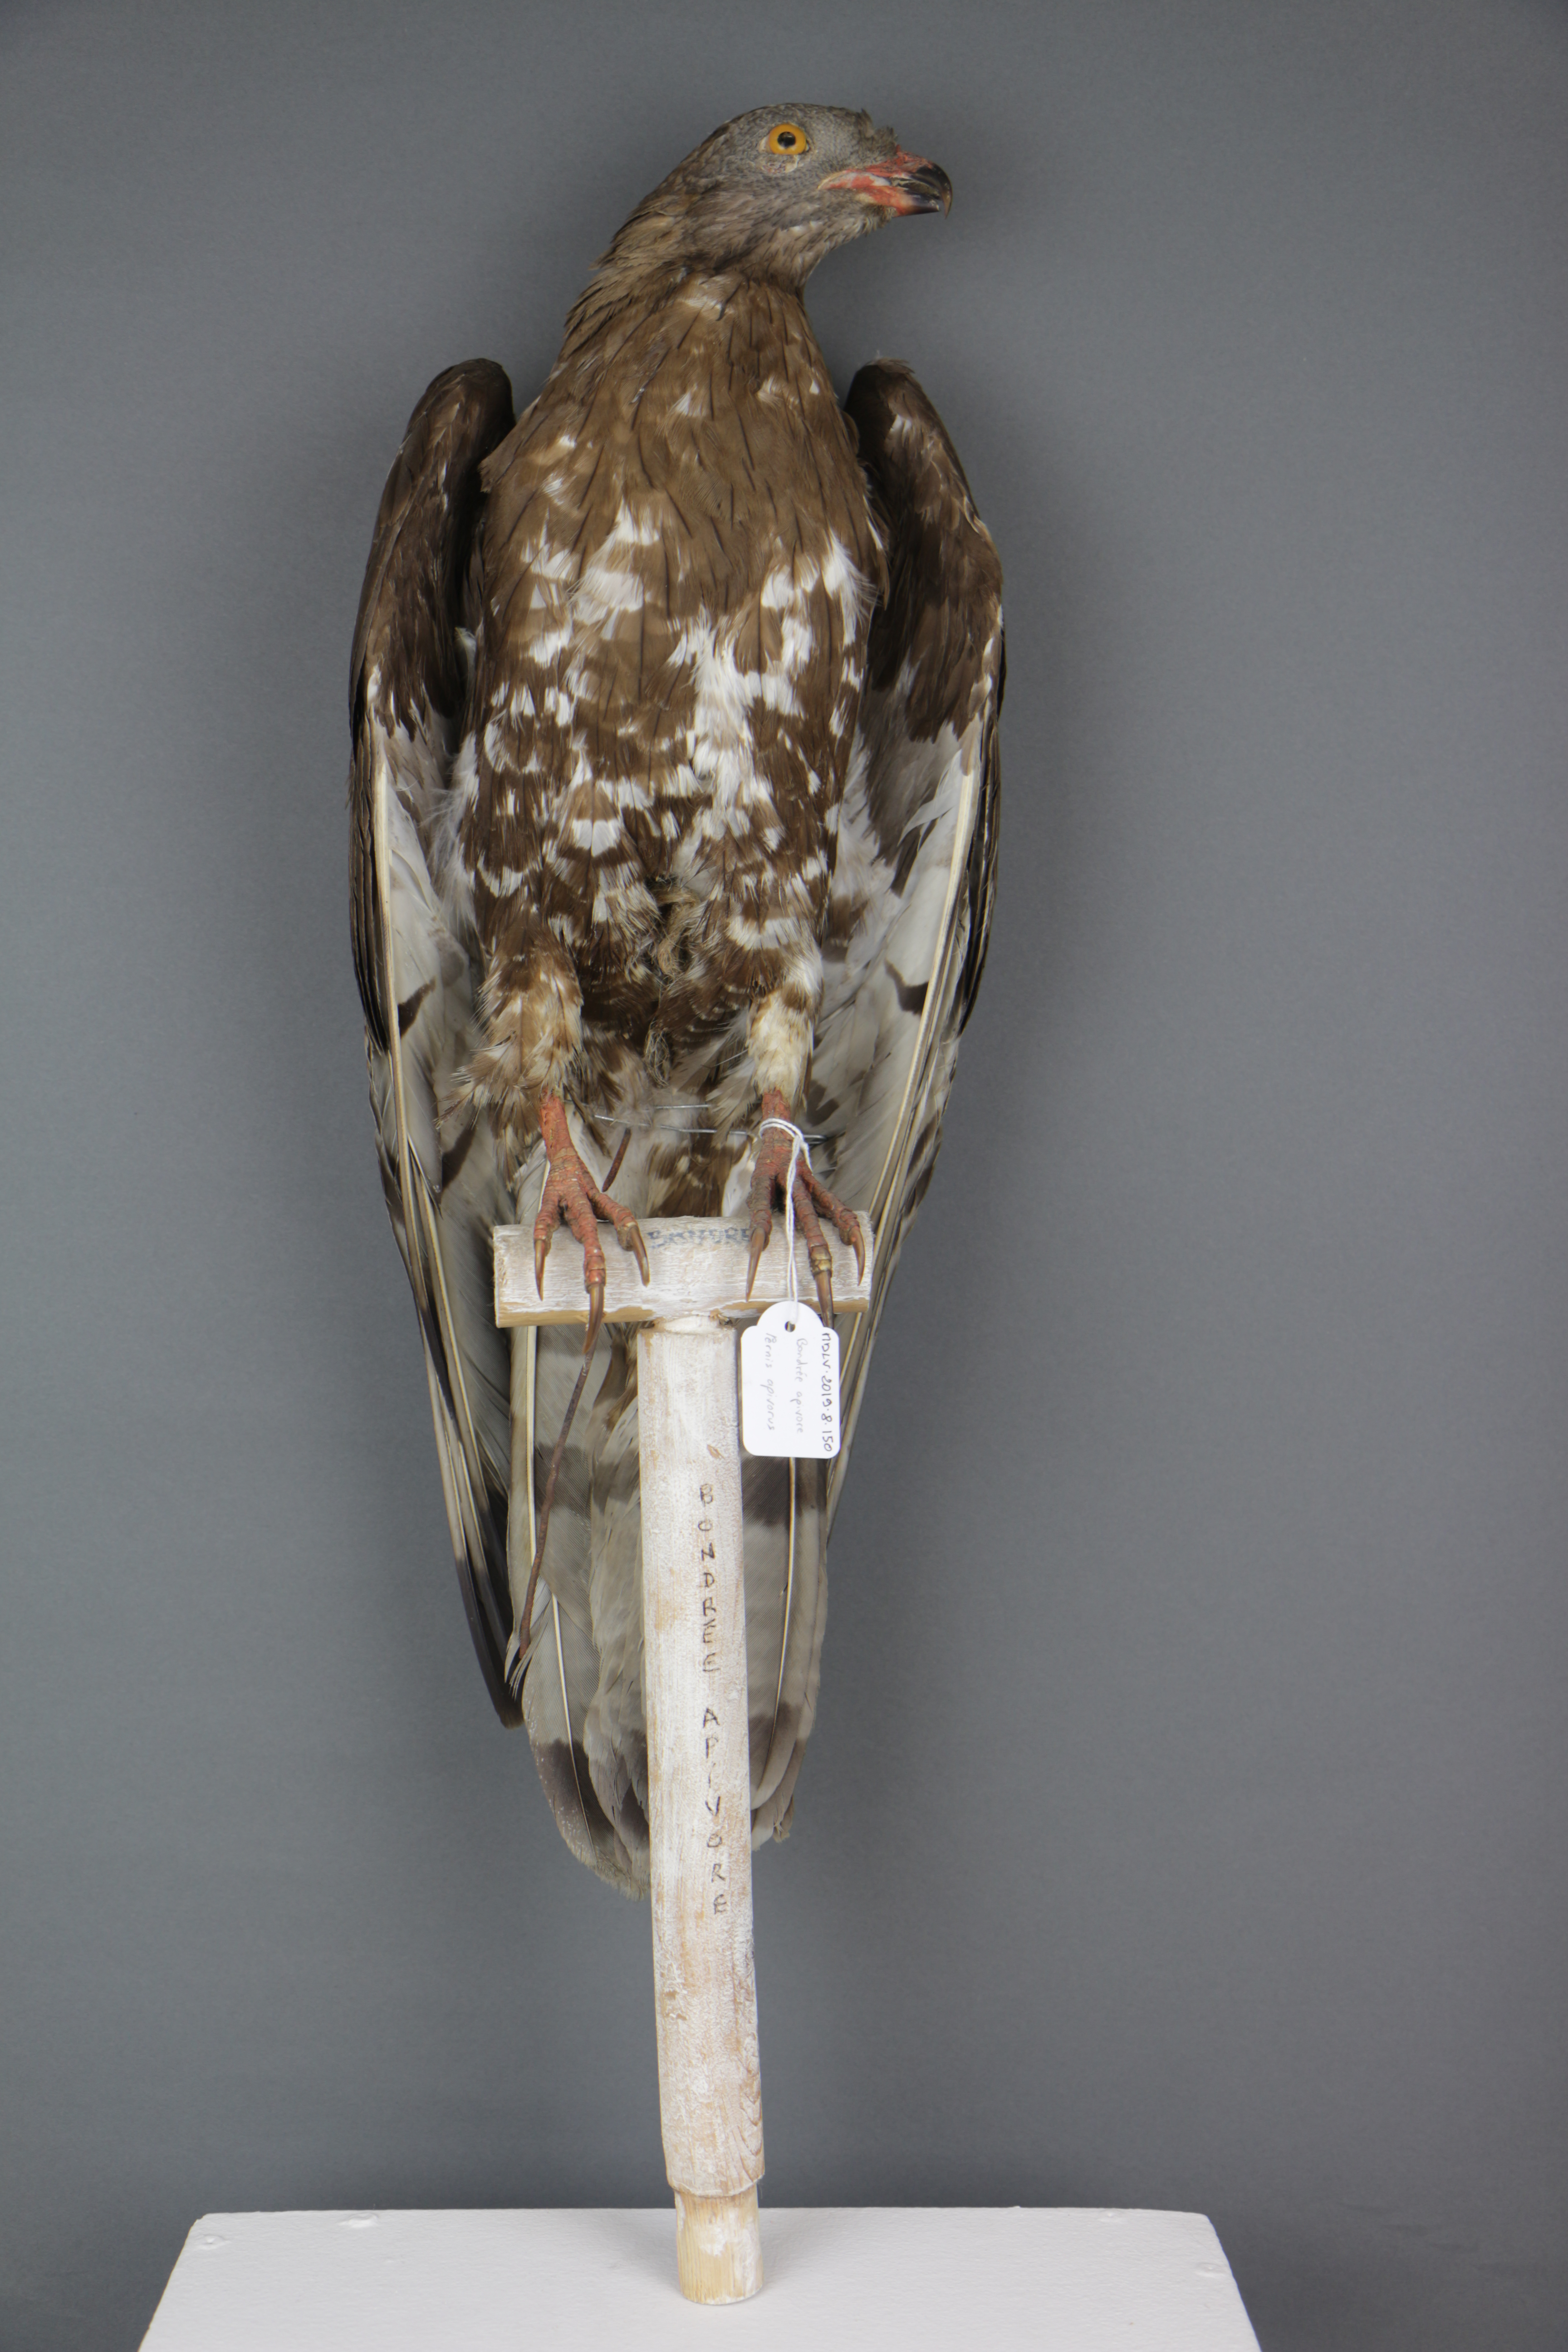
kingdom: Animalia
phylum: Chordata
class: Aves
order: Accipitriformes
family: Accipitridae
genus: Pernis
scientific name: Pernis apivorus
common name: European honey buzzard
